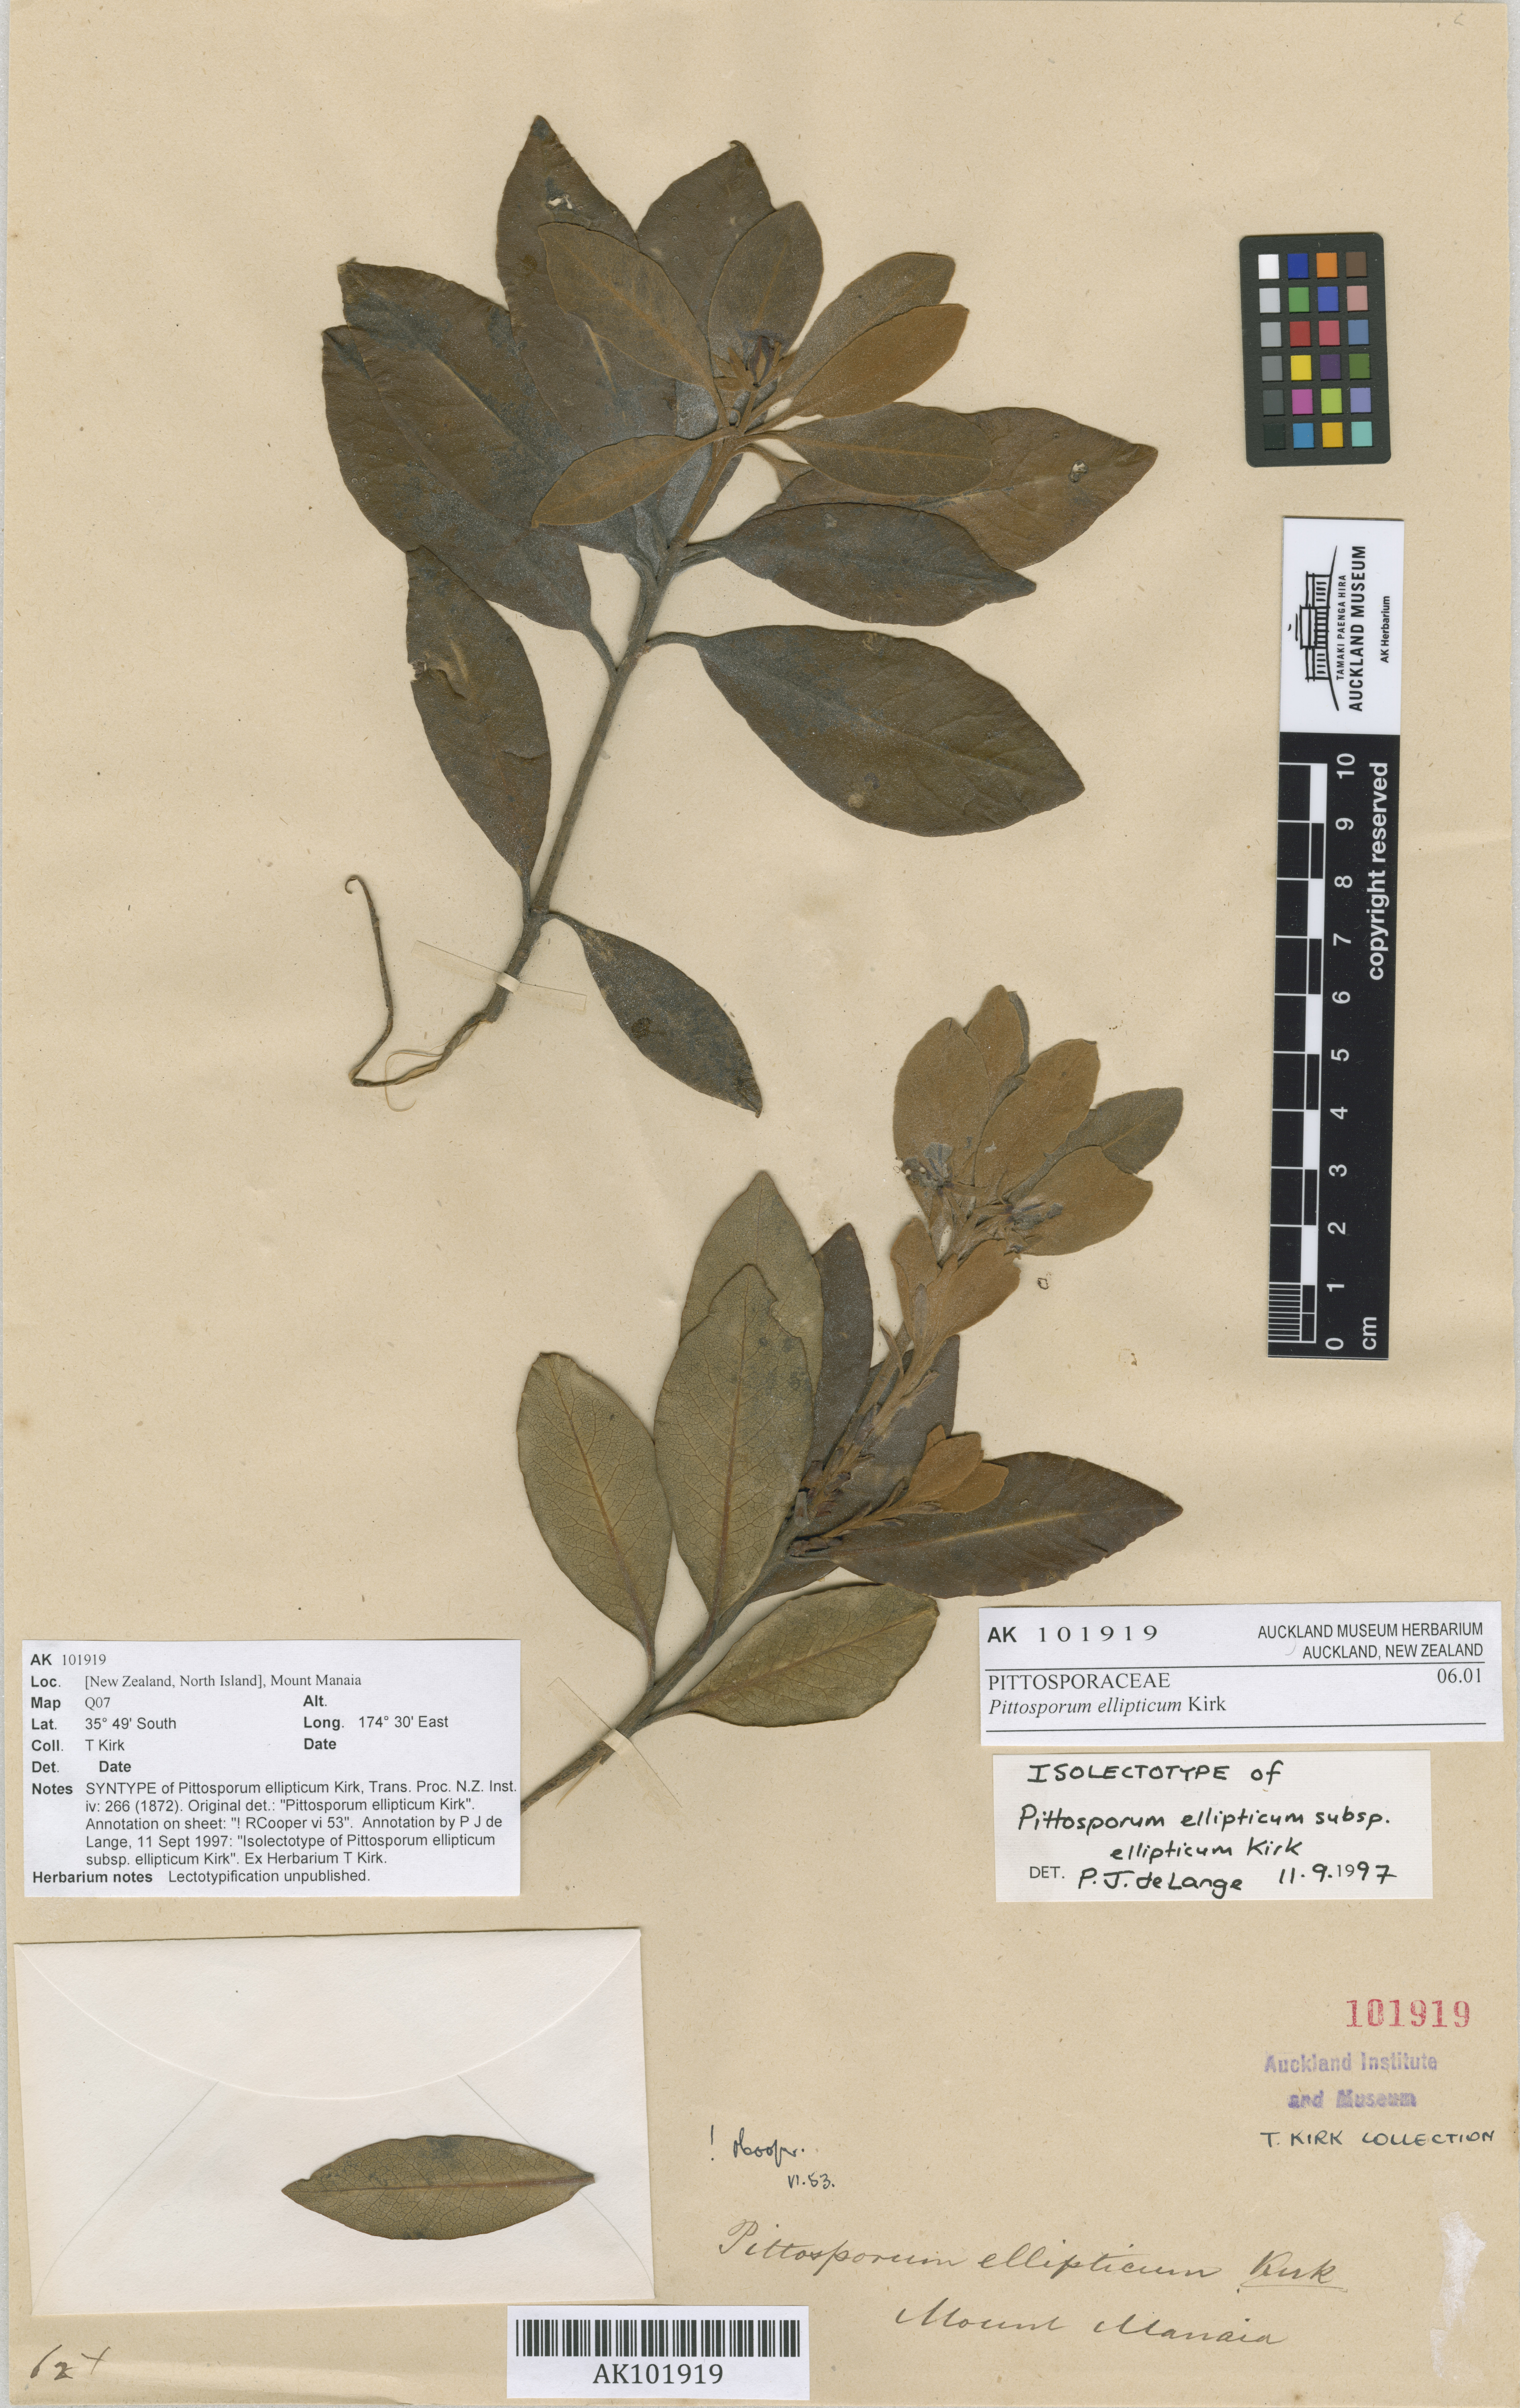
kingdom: Plantae
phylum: Tracheophyta
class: Magnoliopsida
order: Apiales
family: Pittosporaceae
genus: Pittosporum
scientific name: Pittosporum ellipticum
